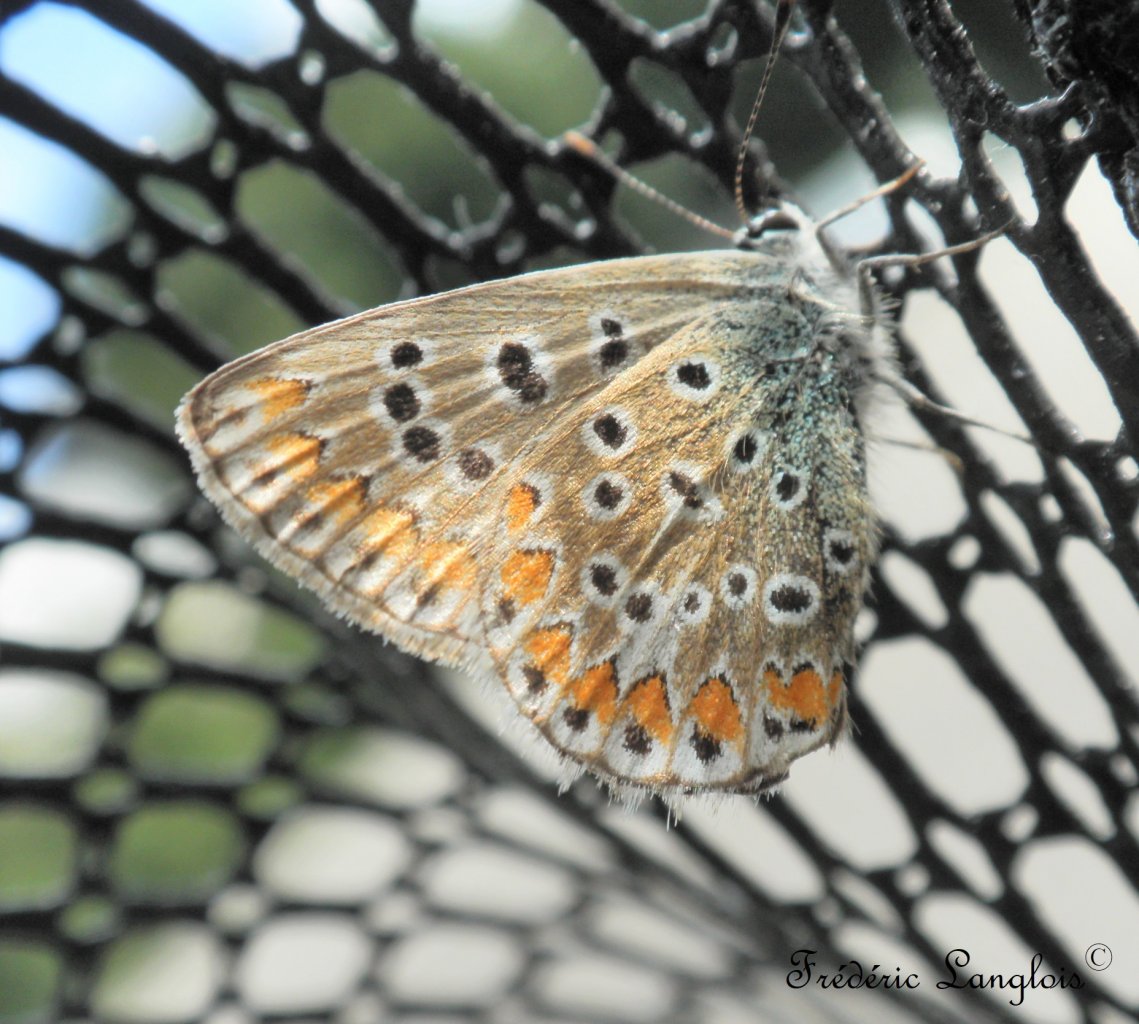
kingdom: Animalia
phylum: Arthropoda
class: Insecta
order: Lepidoptera
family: Lycaenidae
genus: Polyommatus
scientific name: Polyommatus icarus
